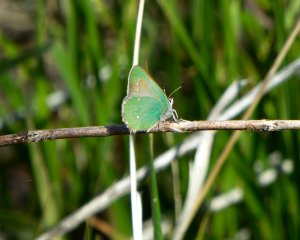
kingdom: Animalia
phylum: Arthropoda
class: Insecta
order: Lepidoptera
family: Lycaenidae
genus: Callophrys
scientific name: Callophrys dumetorum
